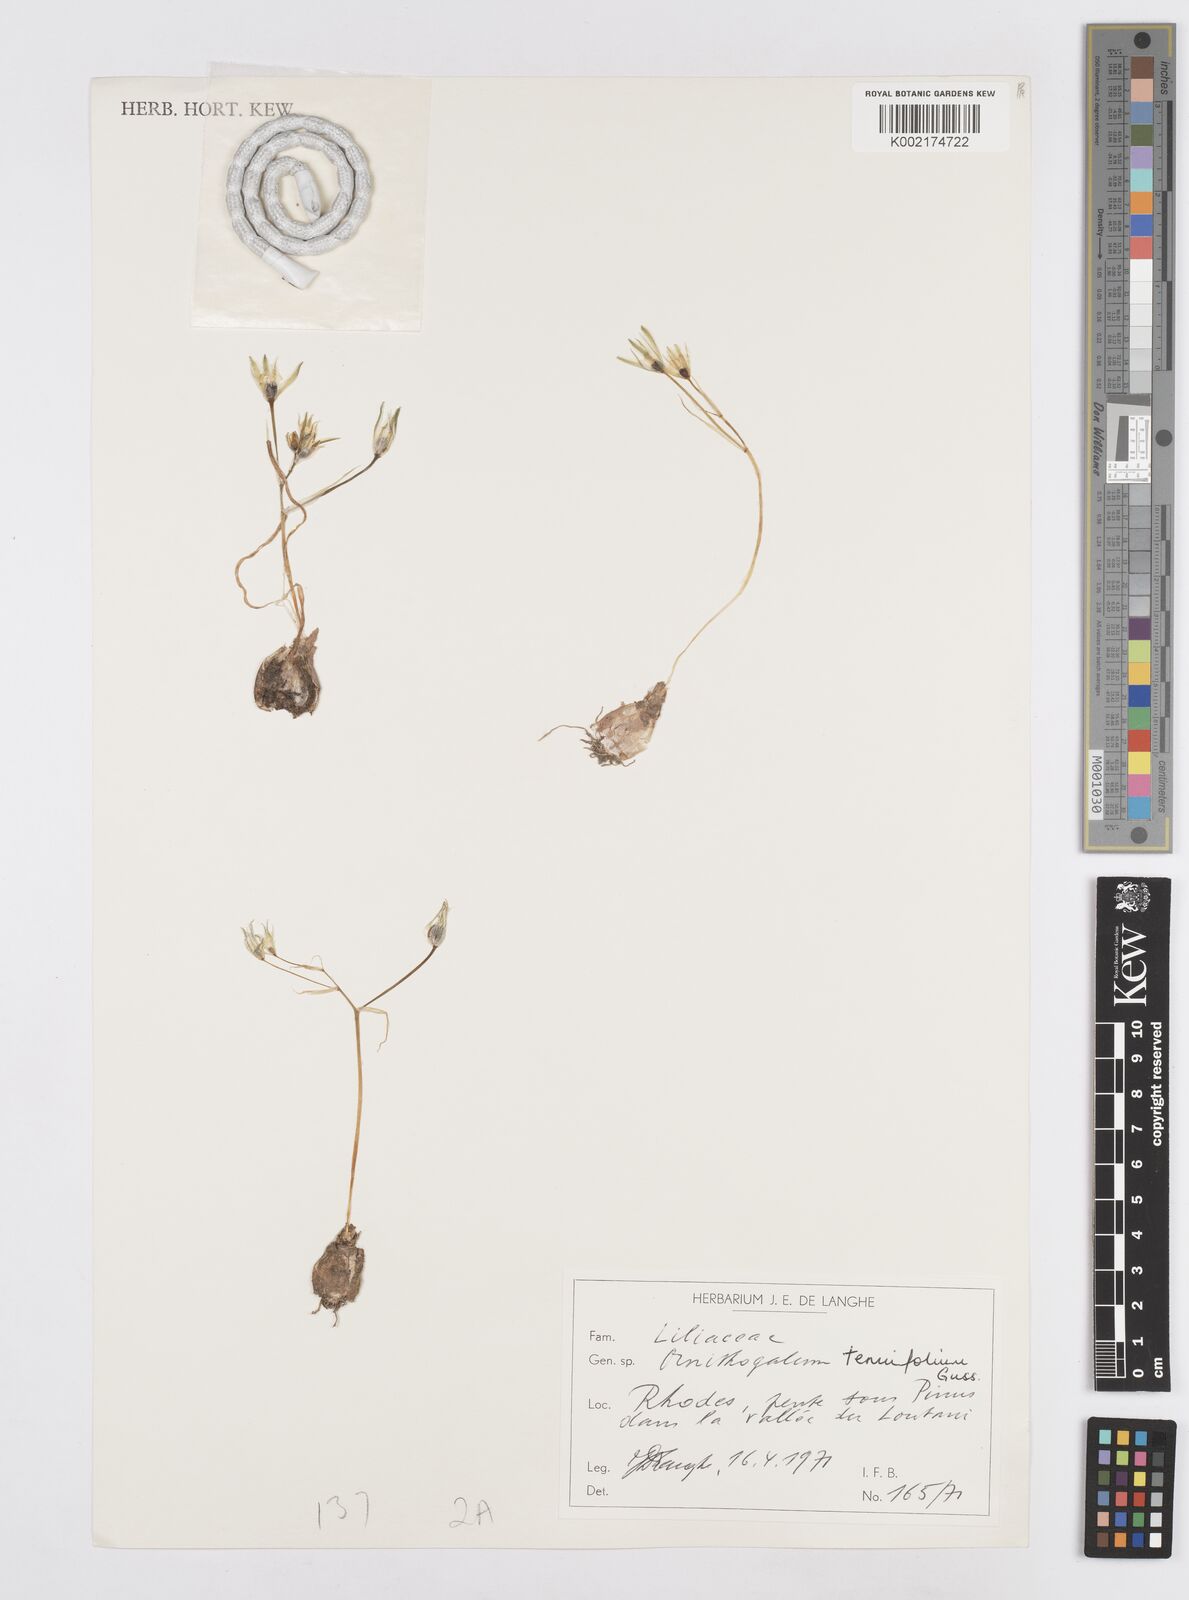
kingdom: Plantae
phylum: Tracheophyta
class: Liliopsida
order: Asparagales
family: Asparagaceae
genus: Ornithogalum
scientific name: Ornithogalum
